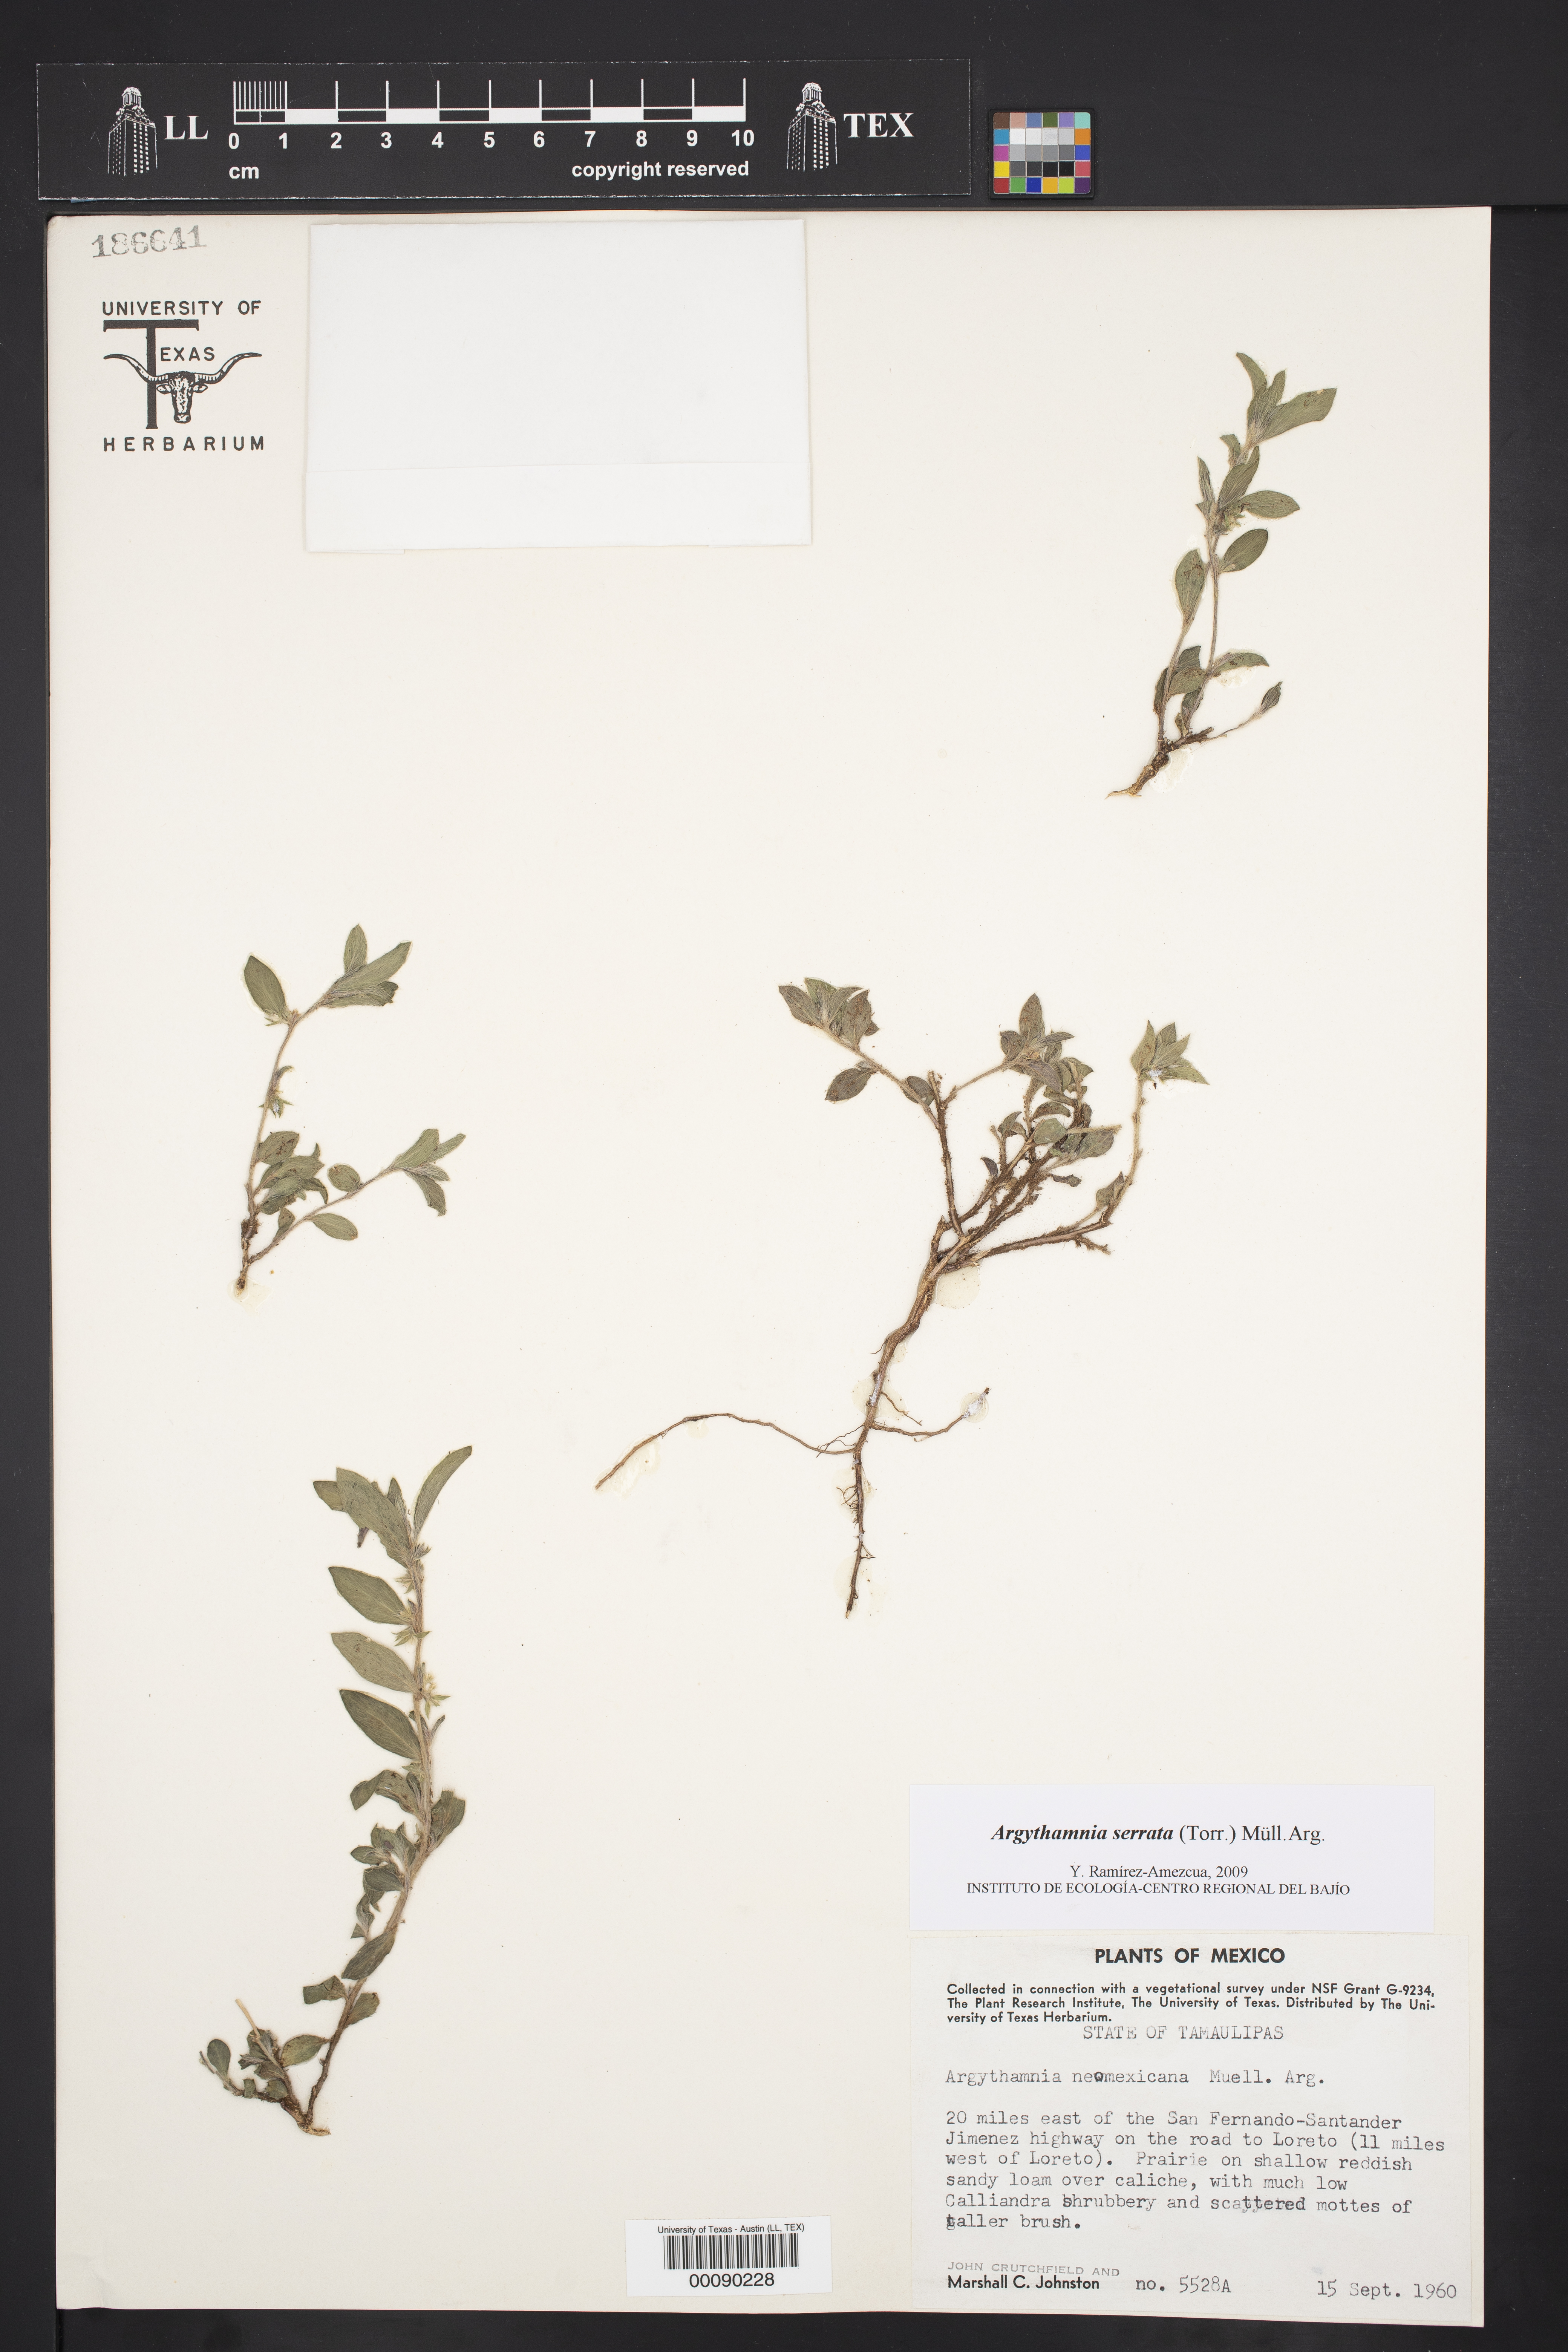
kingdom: Plantae
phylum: Tracheophyta
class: Magnoliopsida
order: Malpighiales
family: Euphorbiaceae
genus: Ditaxis
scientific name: Ditaxis serrata
